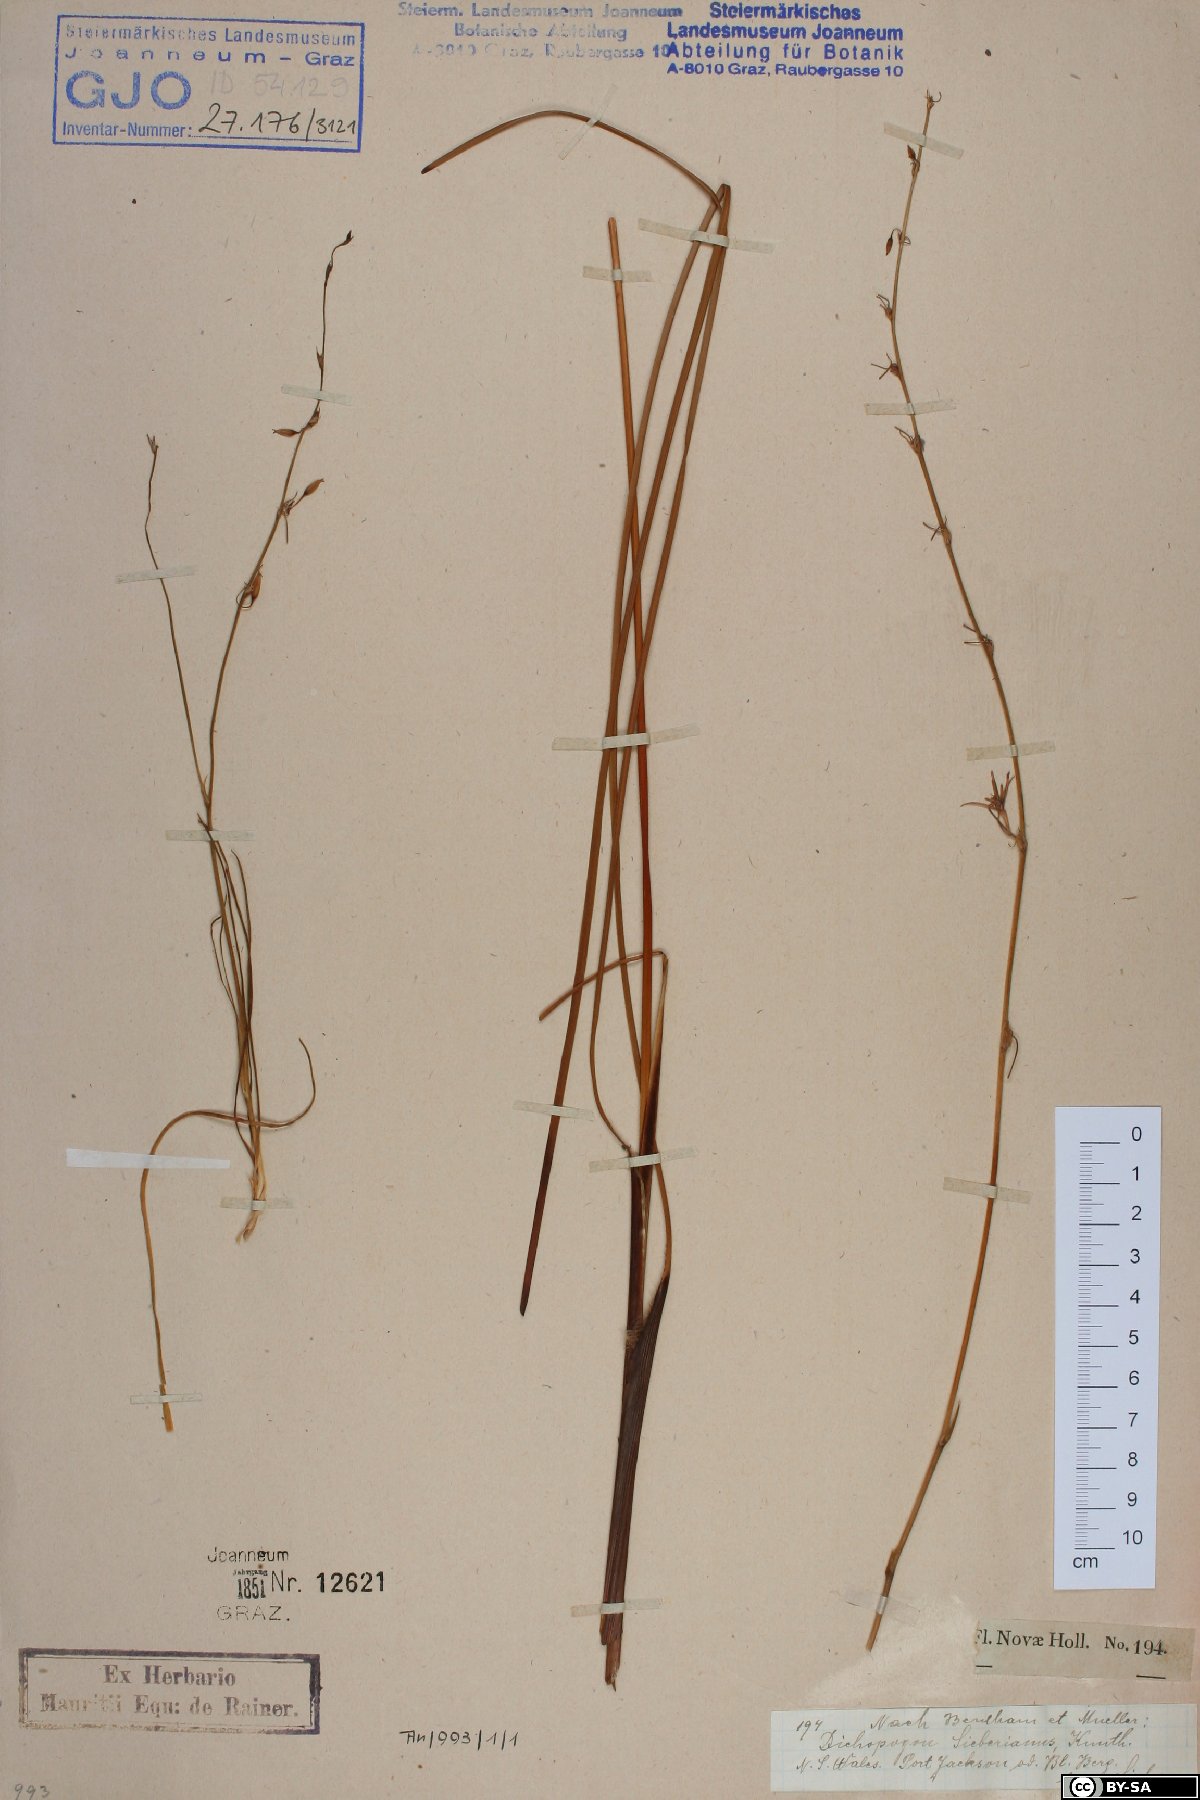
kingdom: Plantae
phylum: Tracheophyta
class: Liliopsida
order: Asparagales
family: Asparagaceae
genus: Dichopogon
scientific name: Dichopogon fimbriatus
